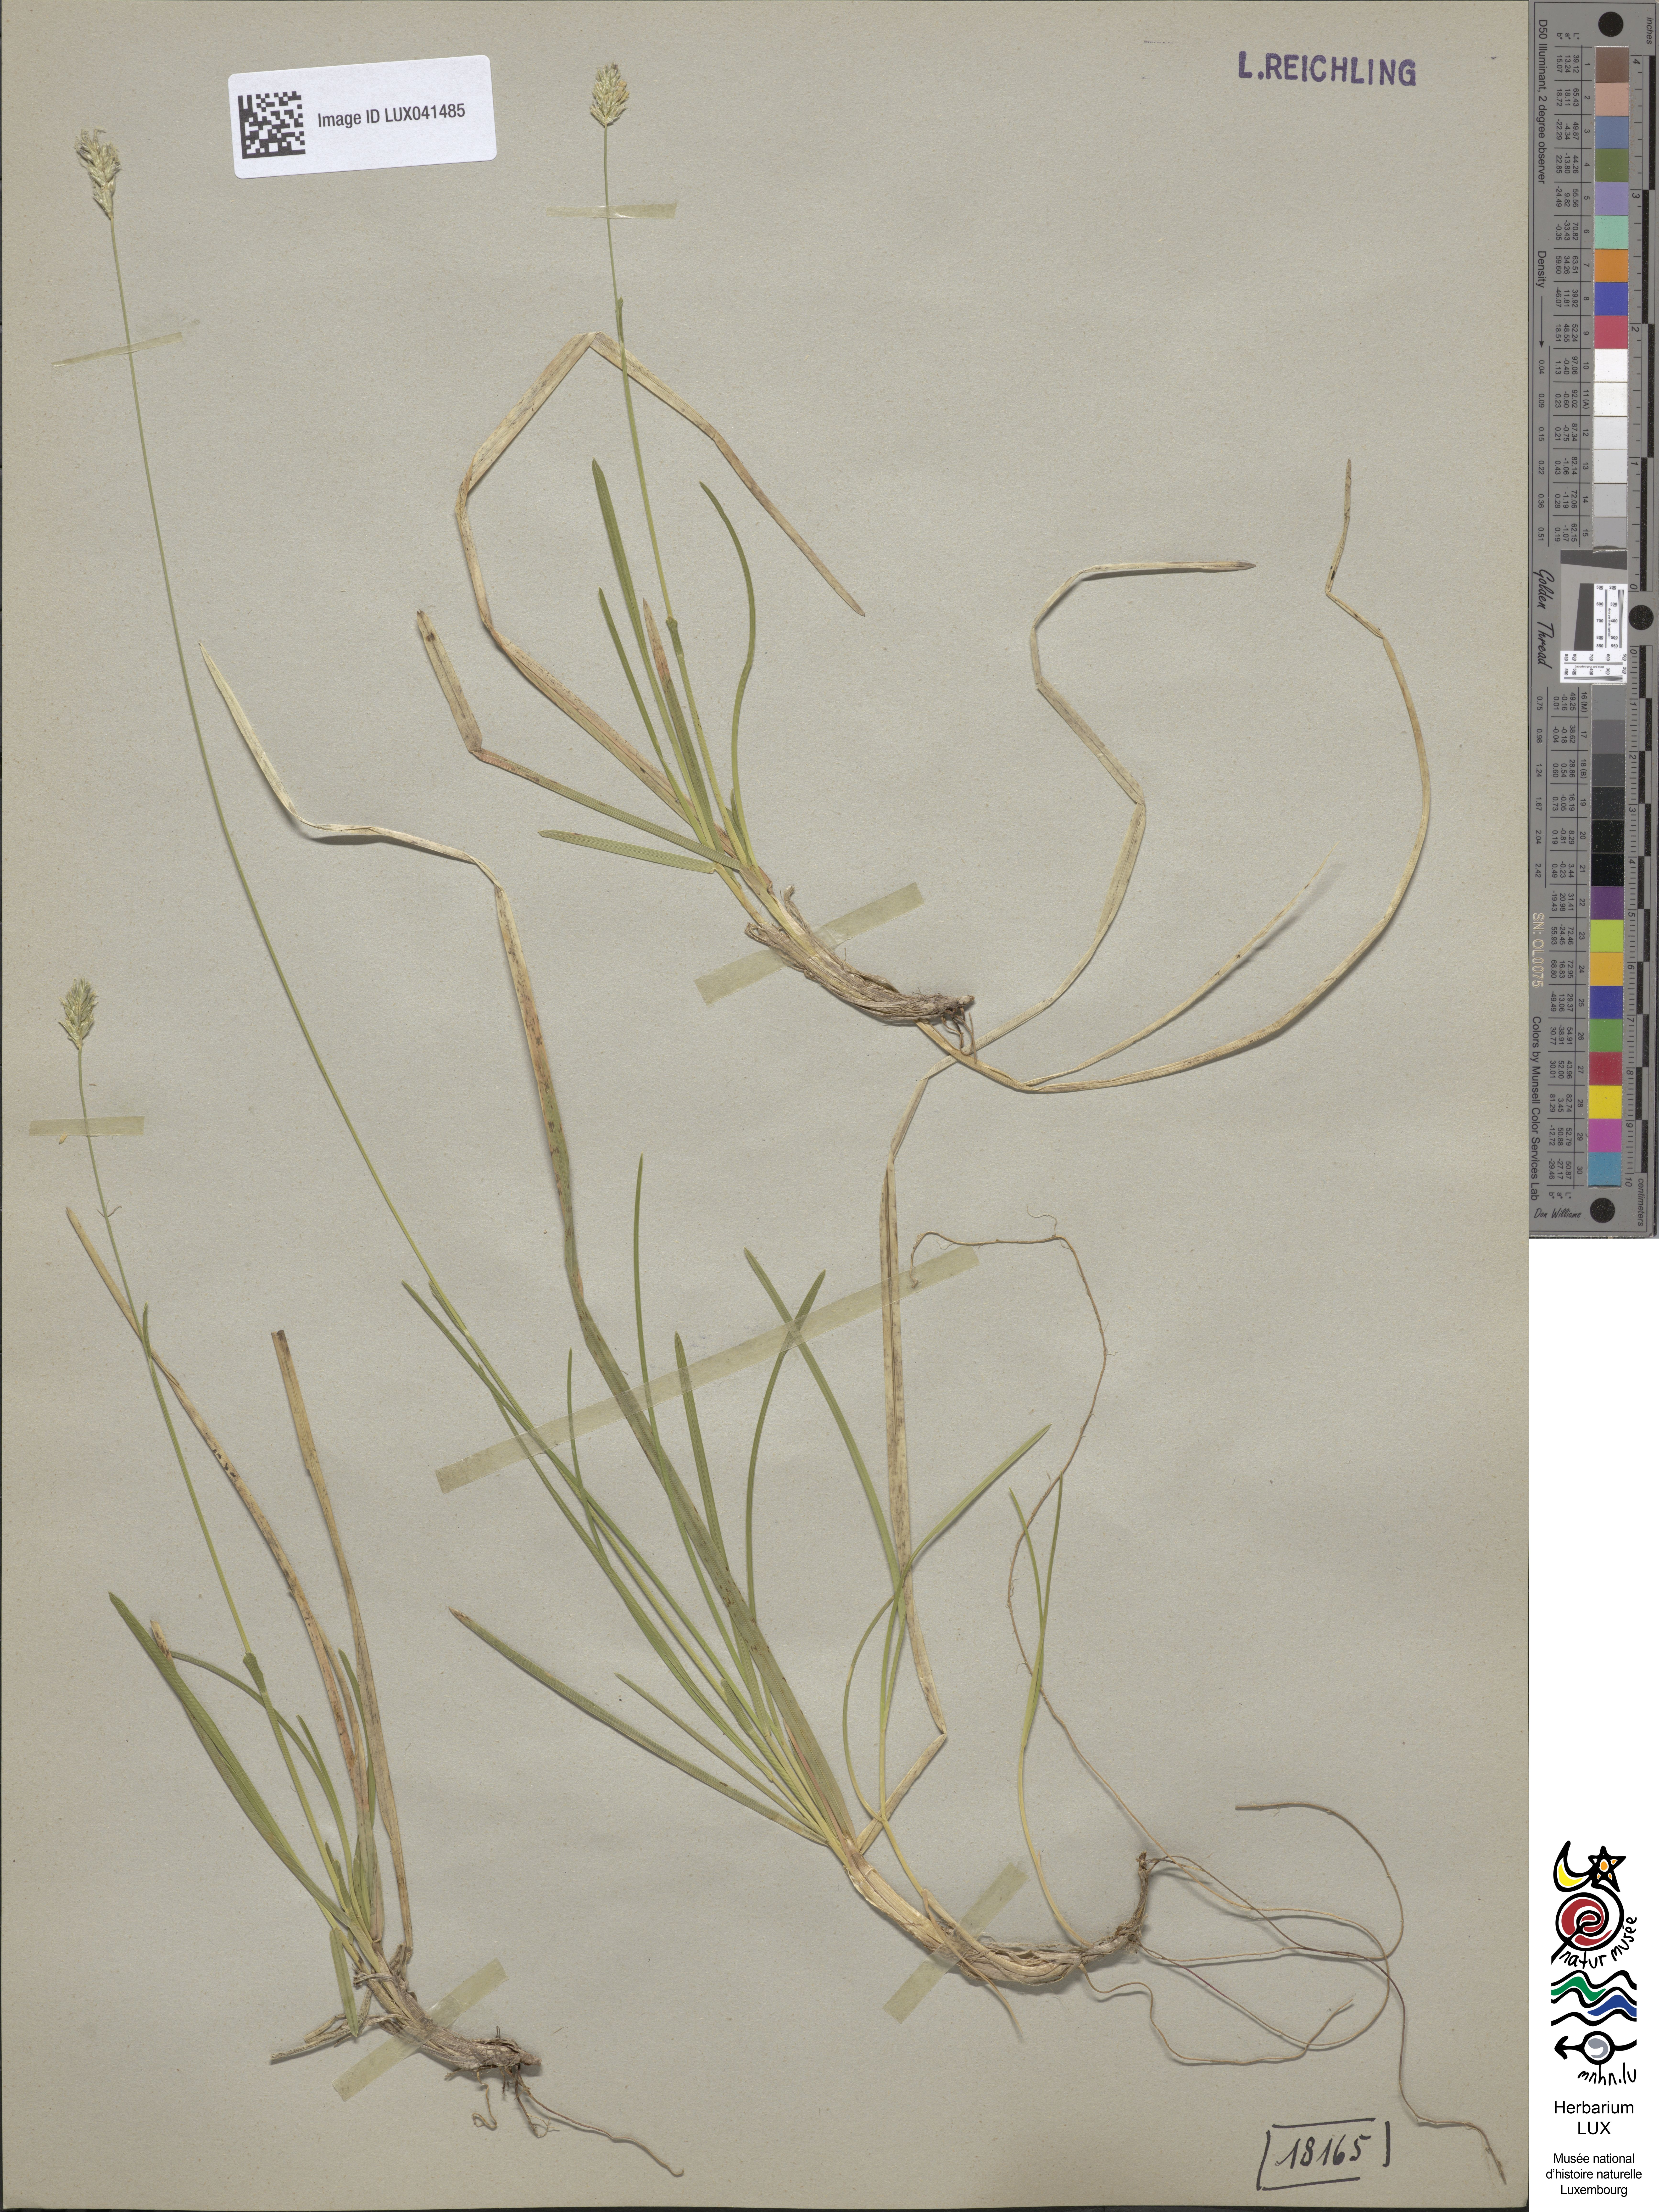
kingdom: Plantae
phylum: Tracheophyta
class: Liliopsida
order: Poales
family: Poaceae
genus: Sesleria
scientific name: Sesleria albicans
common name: Blue moor-grass
